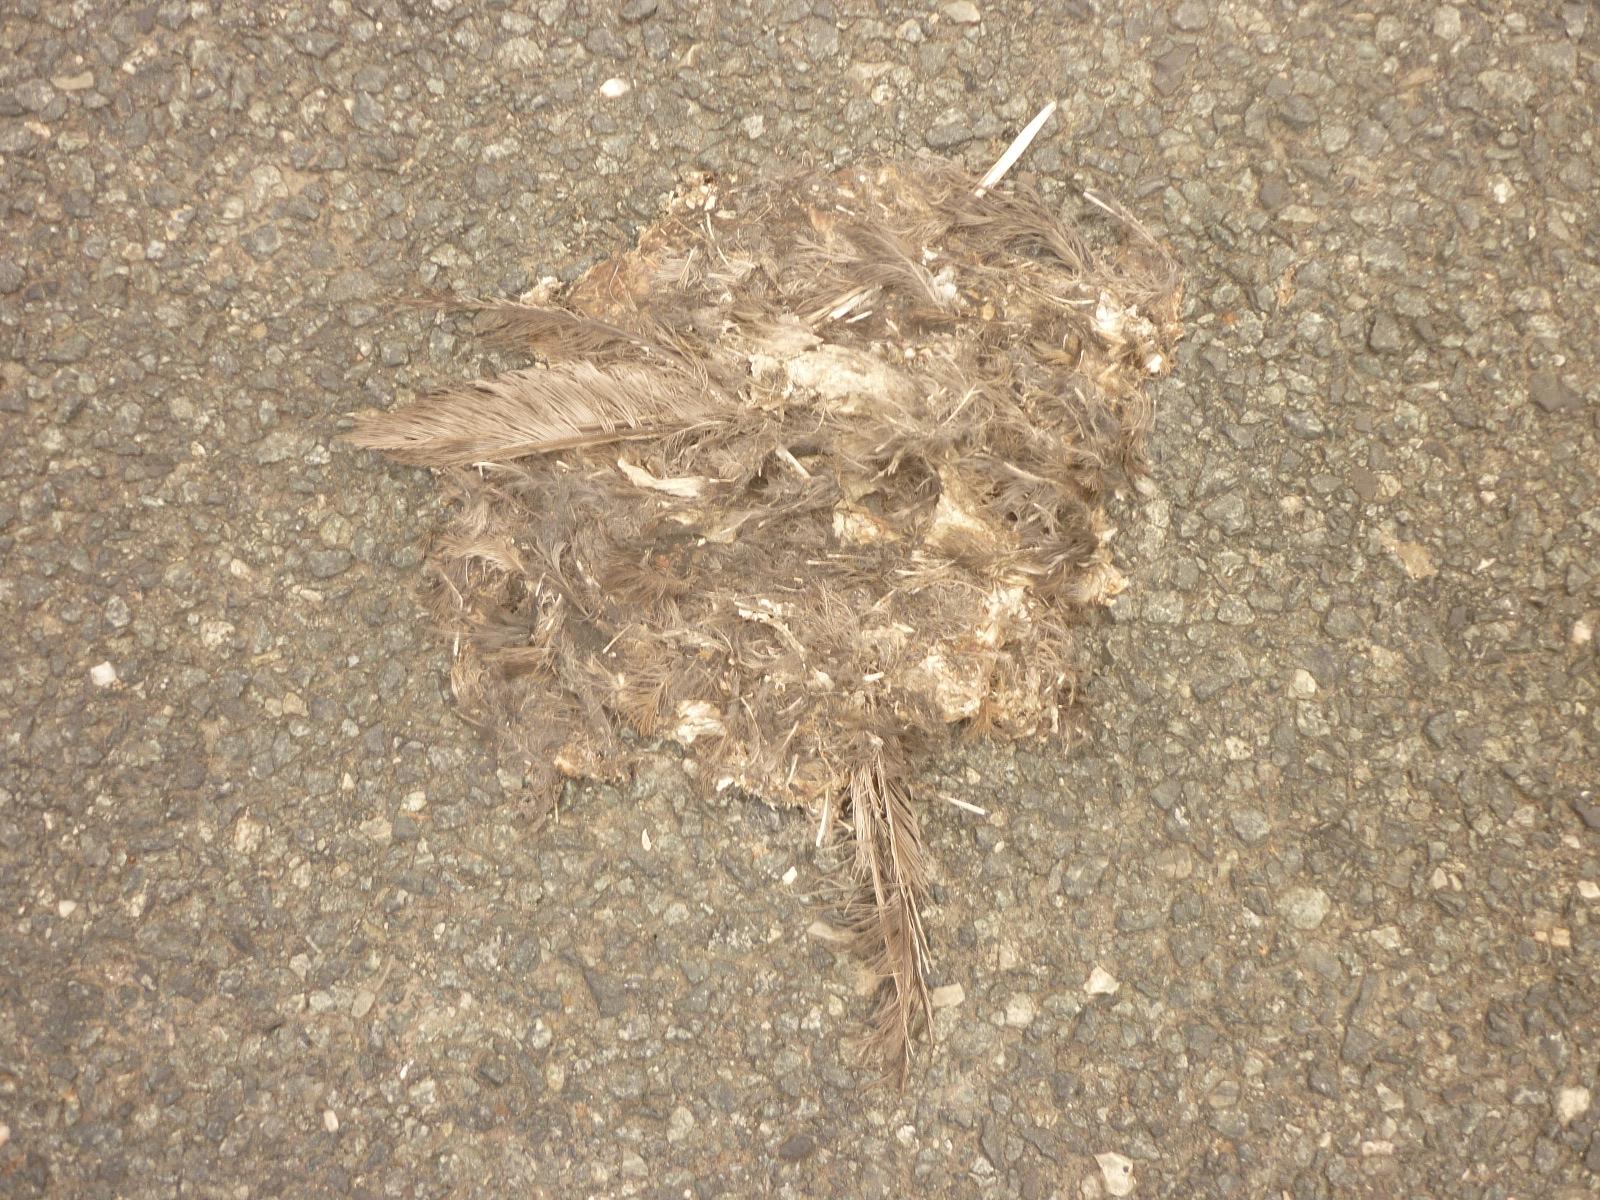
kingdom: Animalia
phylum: Chordata
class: Aves
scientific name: Aves
